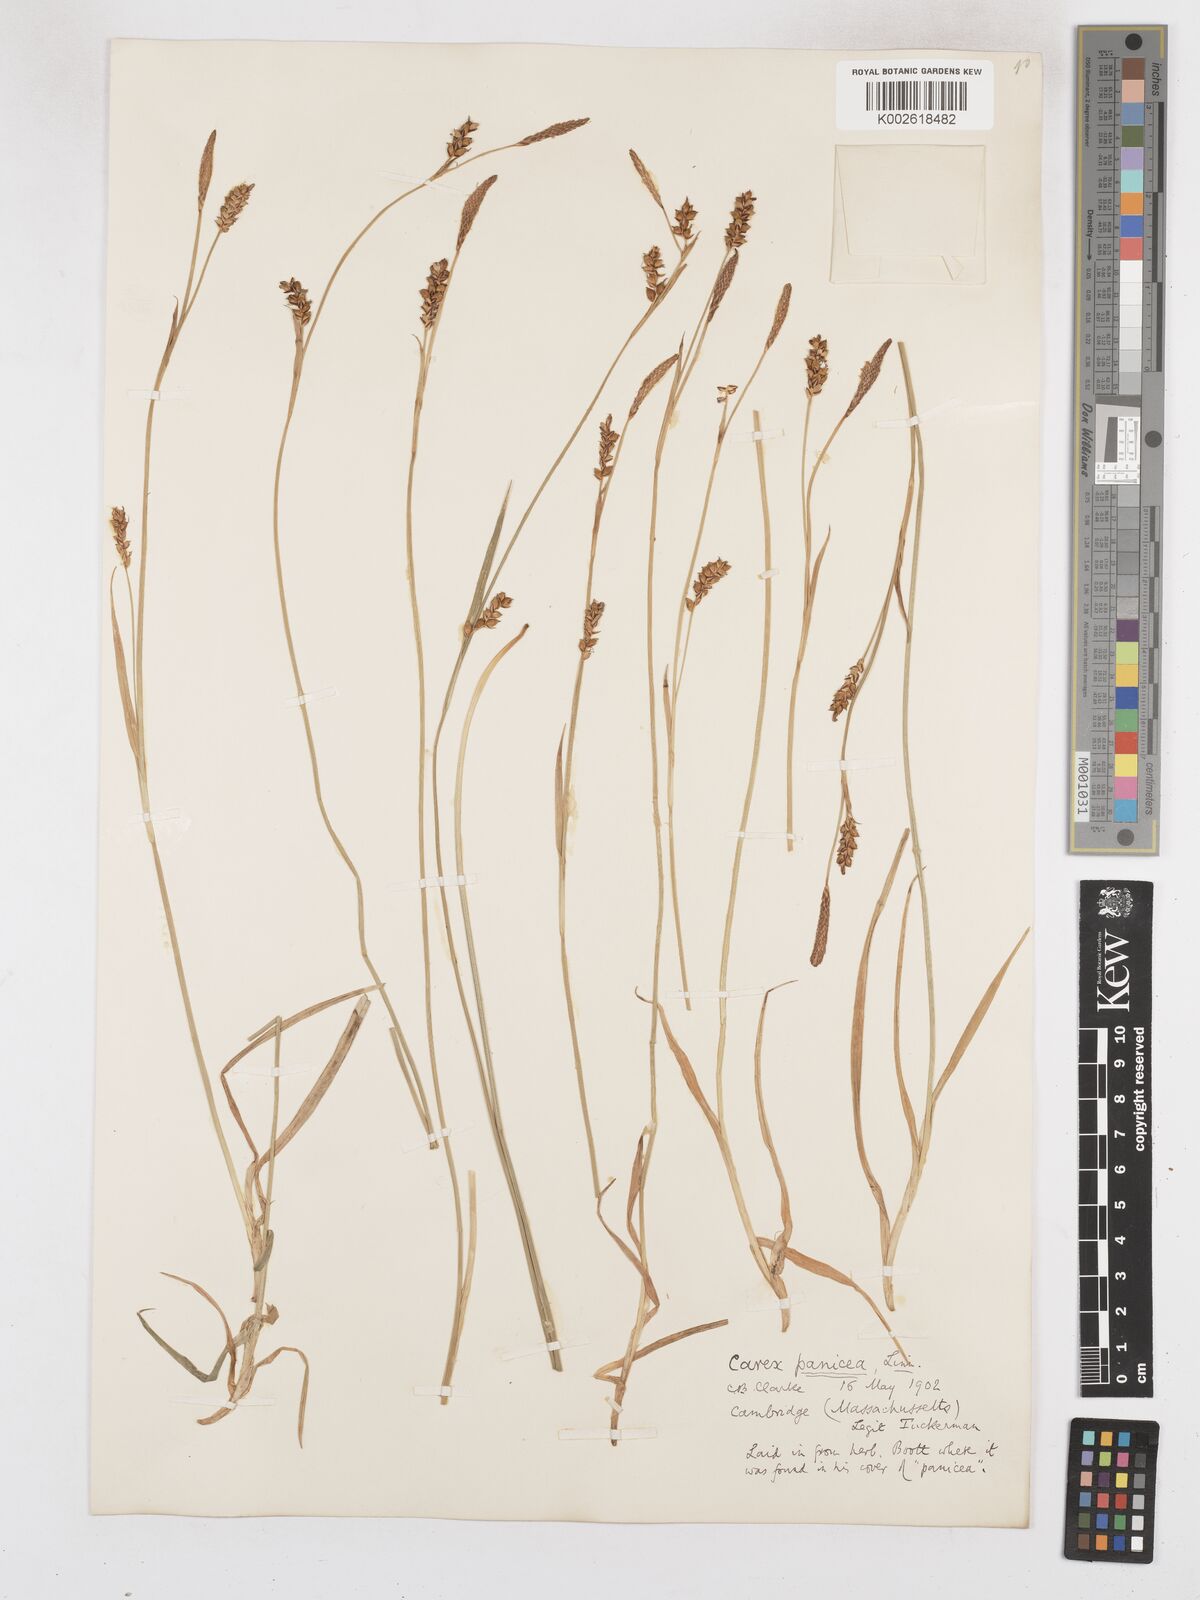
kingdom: Plantae
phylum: Tracheophyta
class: Liliopsida
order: Poales
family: Cyperaceae
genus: Carex
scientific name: Carex panicea
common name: Carnation sedge
